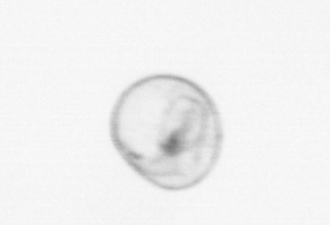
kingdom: Chromista
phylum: Myzozoa
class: Dinophyceae
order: Noctilucales
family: Noctilucaceae
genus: Noctiluca
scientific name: Noctiluca scintillans
